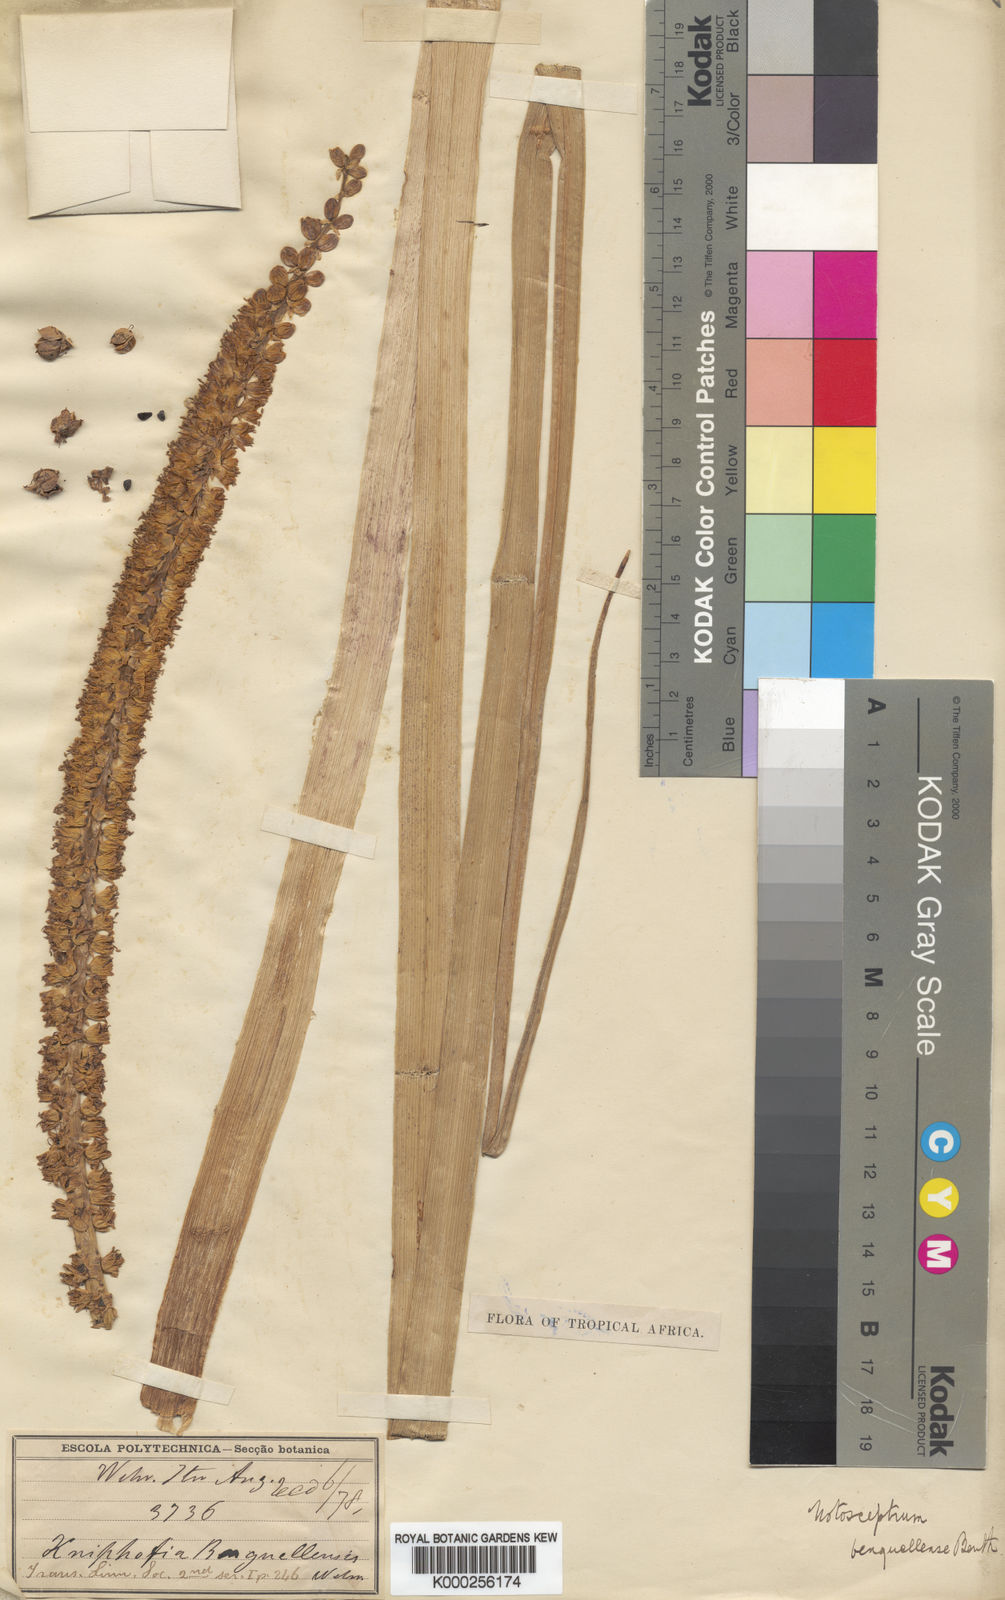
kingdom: Plantae
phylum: Tracheophyta
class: Liliopsida
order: Asparagales
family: Asphodelaceae
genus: Kniphofia
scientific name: Kniphofia benguellensis
